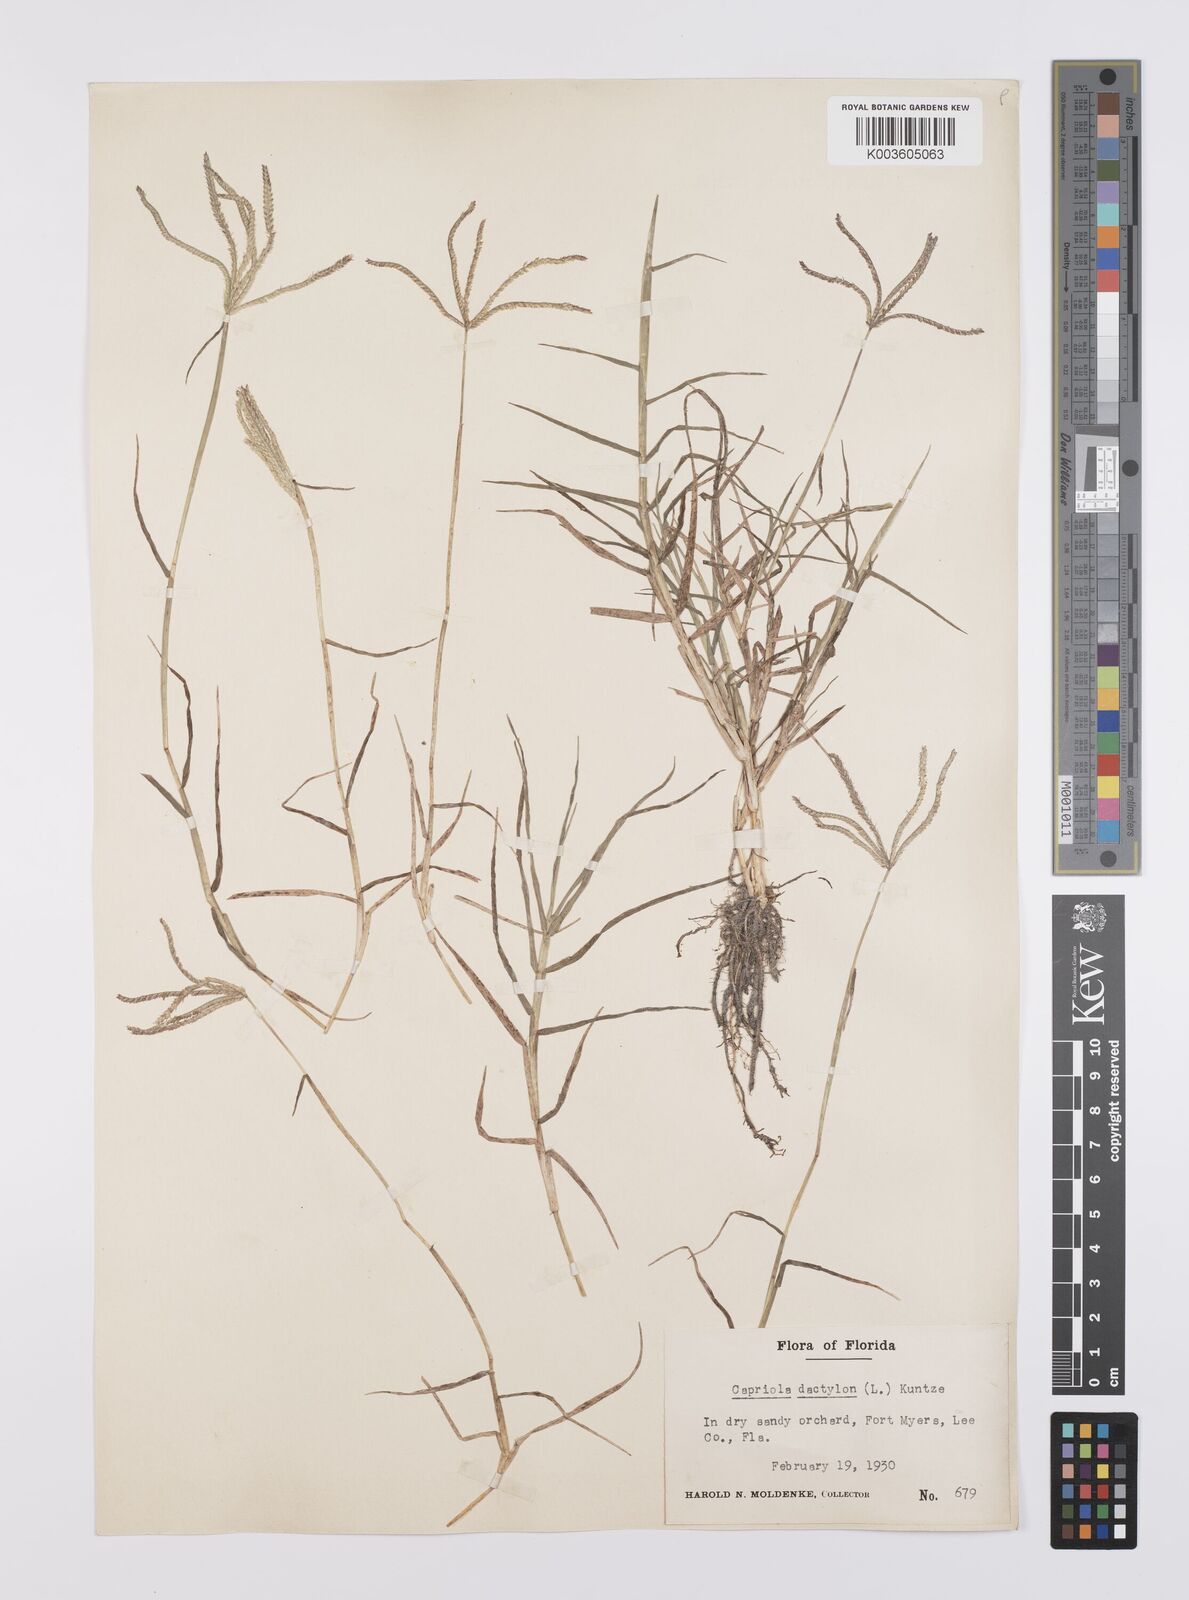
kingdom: Plantae
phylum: Tracheophyta
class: Liliopsida
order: Poales
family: Poaceae
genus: Cynodon
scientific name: Cynodon dactylon
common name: Bermuda grass
